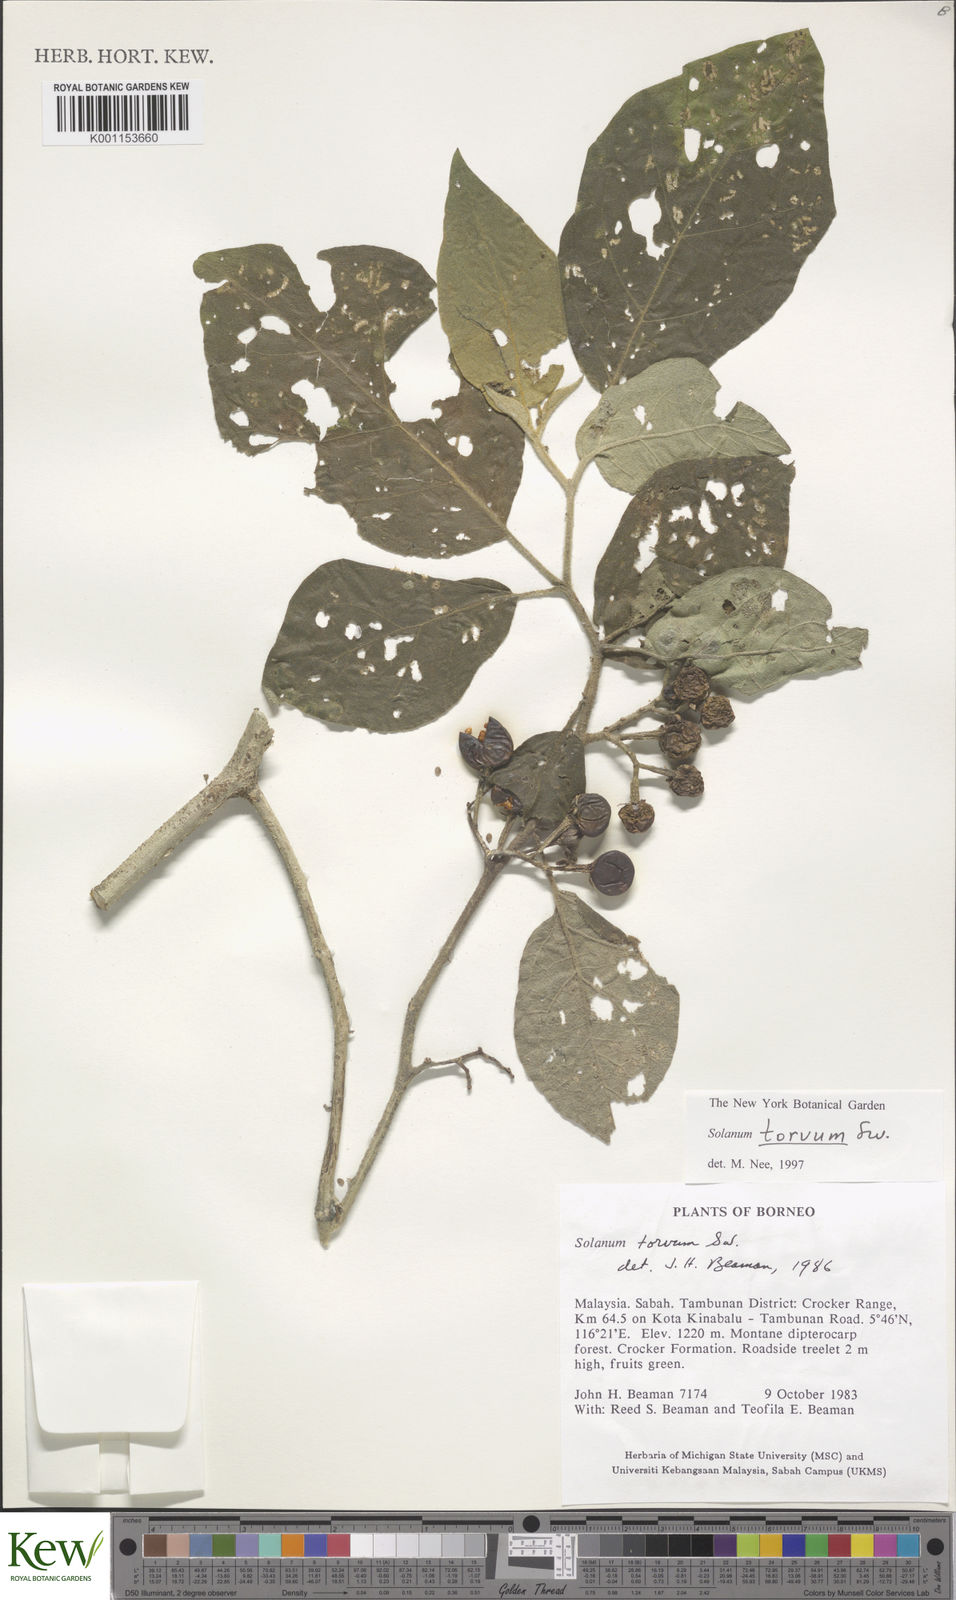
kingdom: Plantae
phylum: Tracheophyta
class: Magnoliopsida
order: Solanales
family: Solanaceae
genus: Solanum
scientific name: Solanum torvum
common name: Turkey berry
